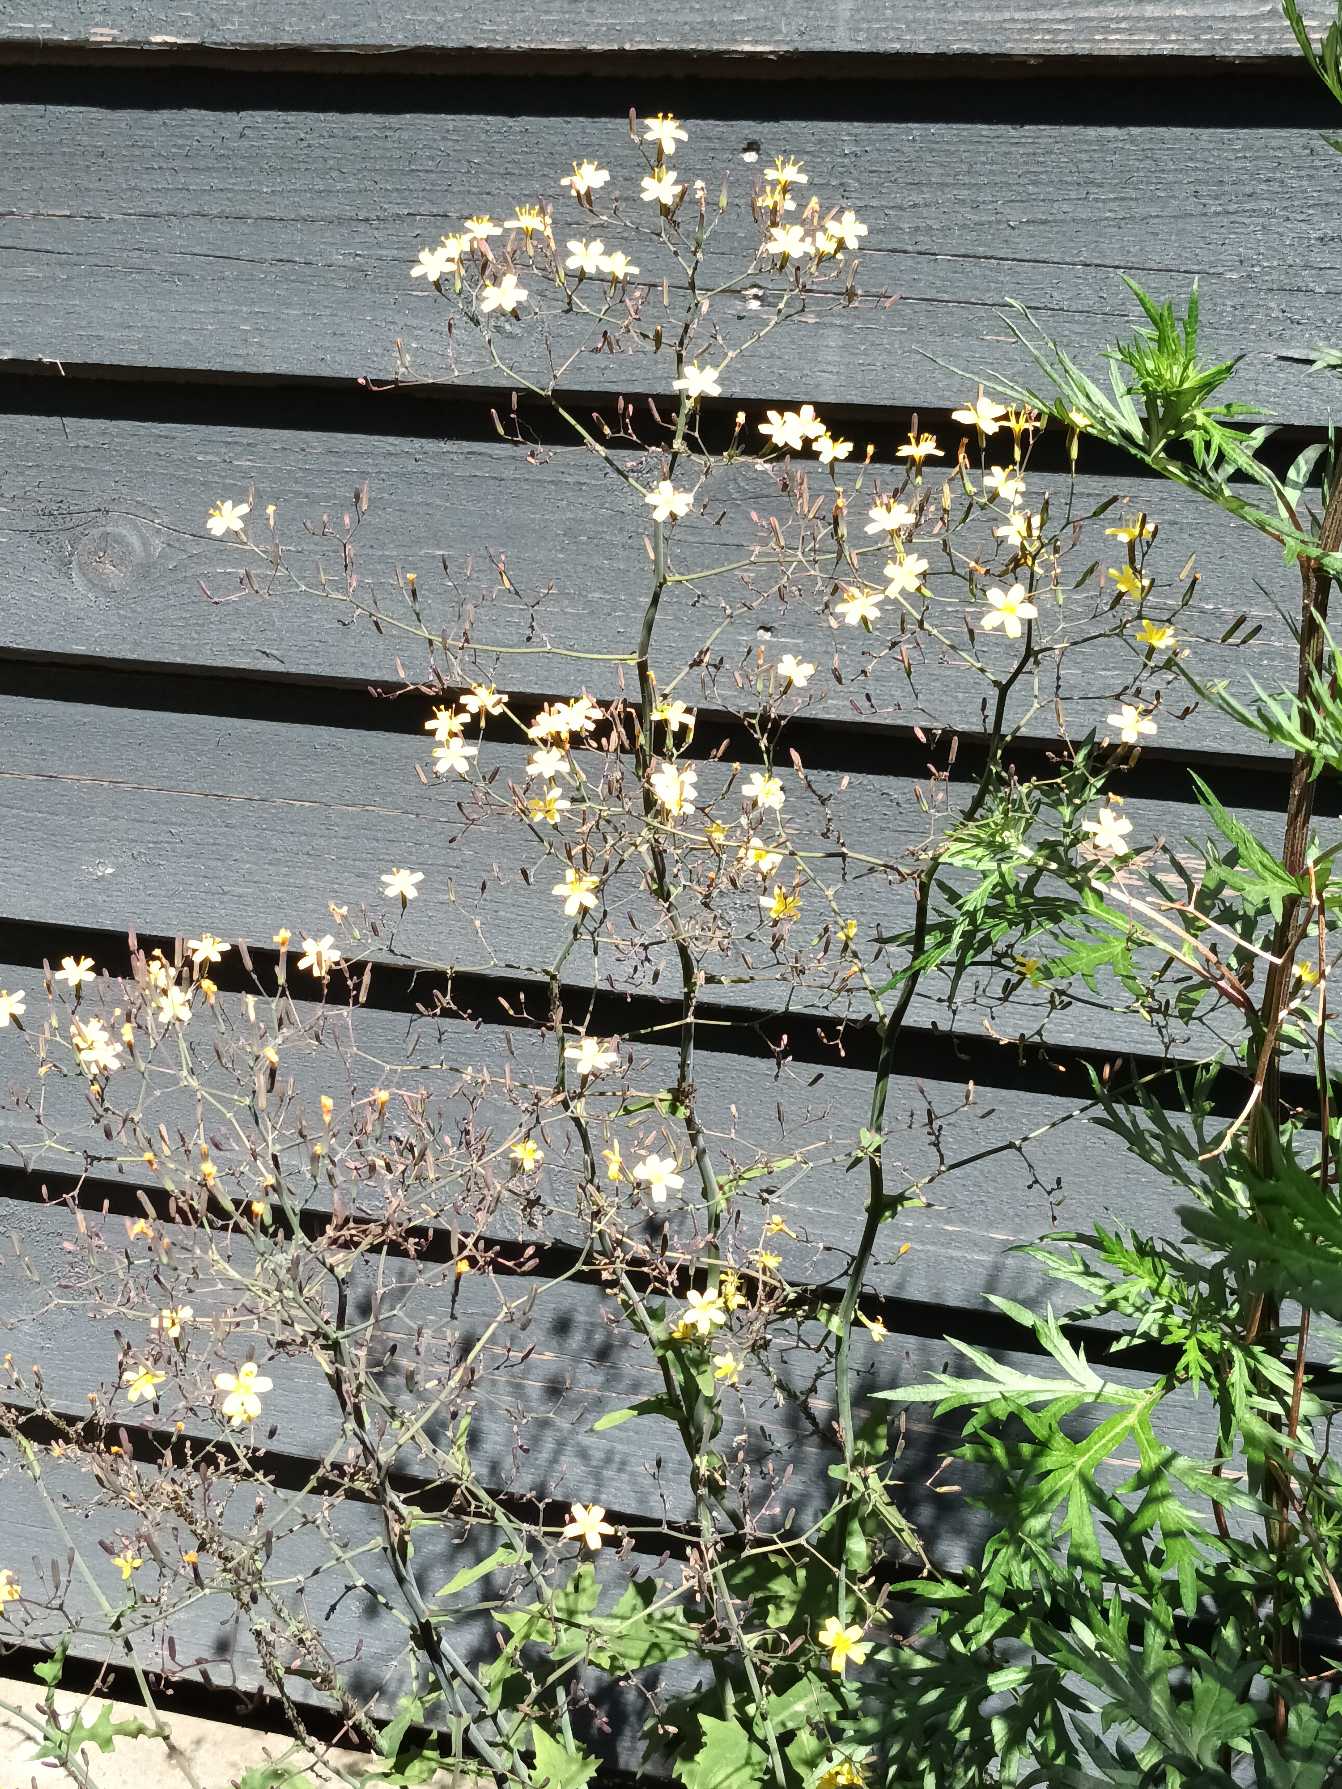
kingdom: Plantae
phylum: Tracheophyta
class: Magnoliopsida
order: Asterales
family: Asteraceae
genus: Mycelis
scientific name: Mycelis muralis
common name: Skov-salat
